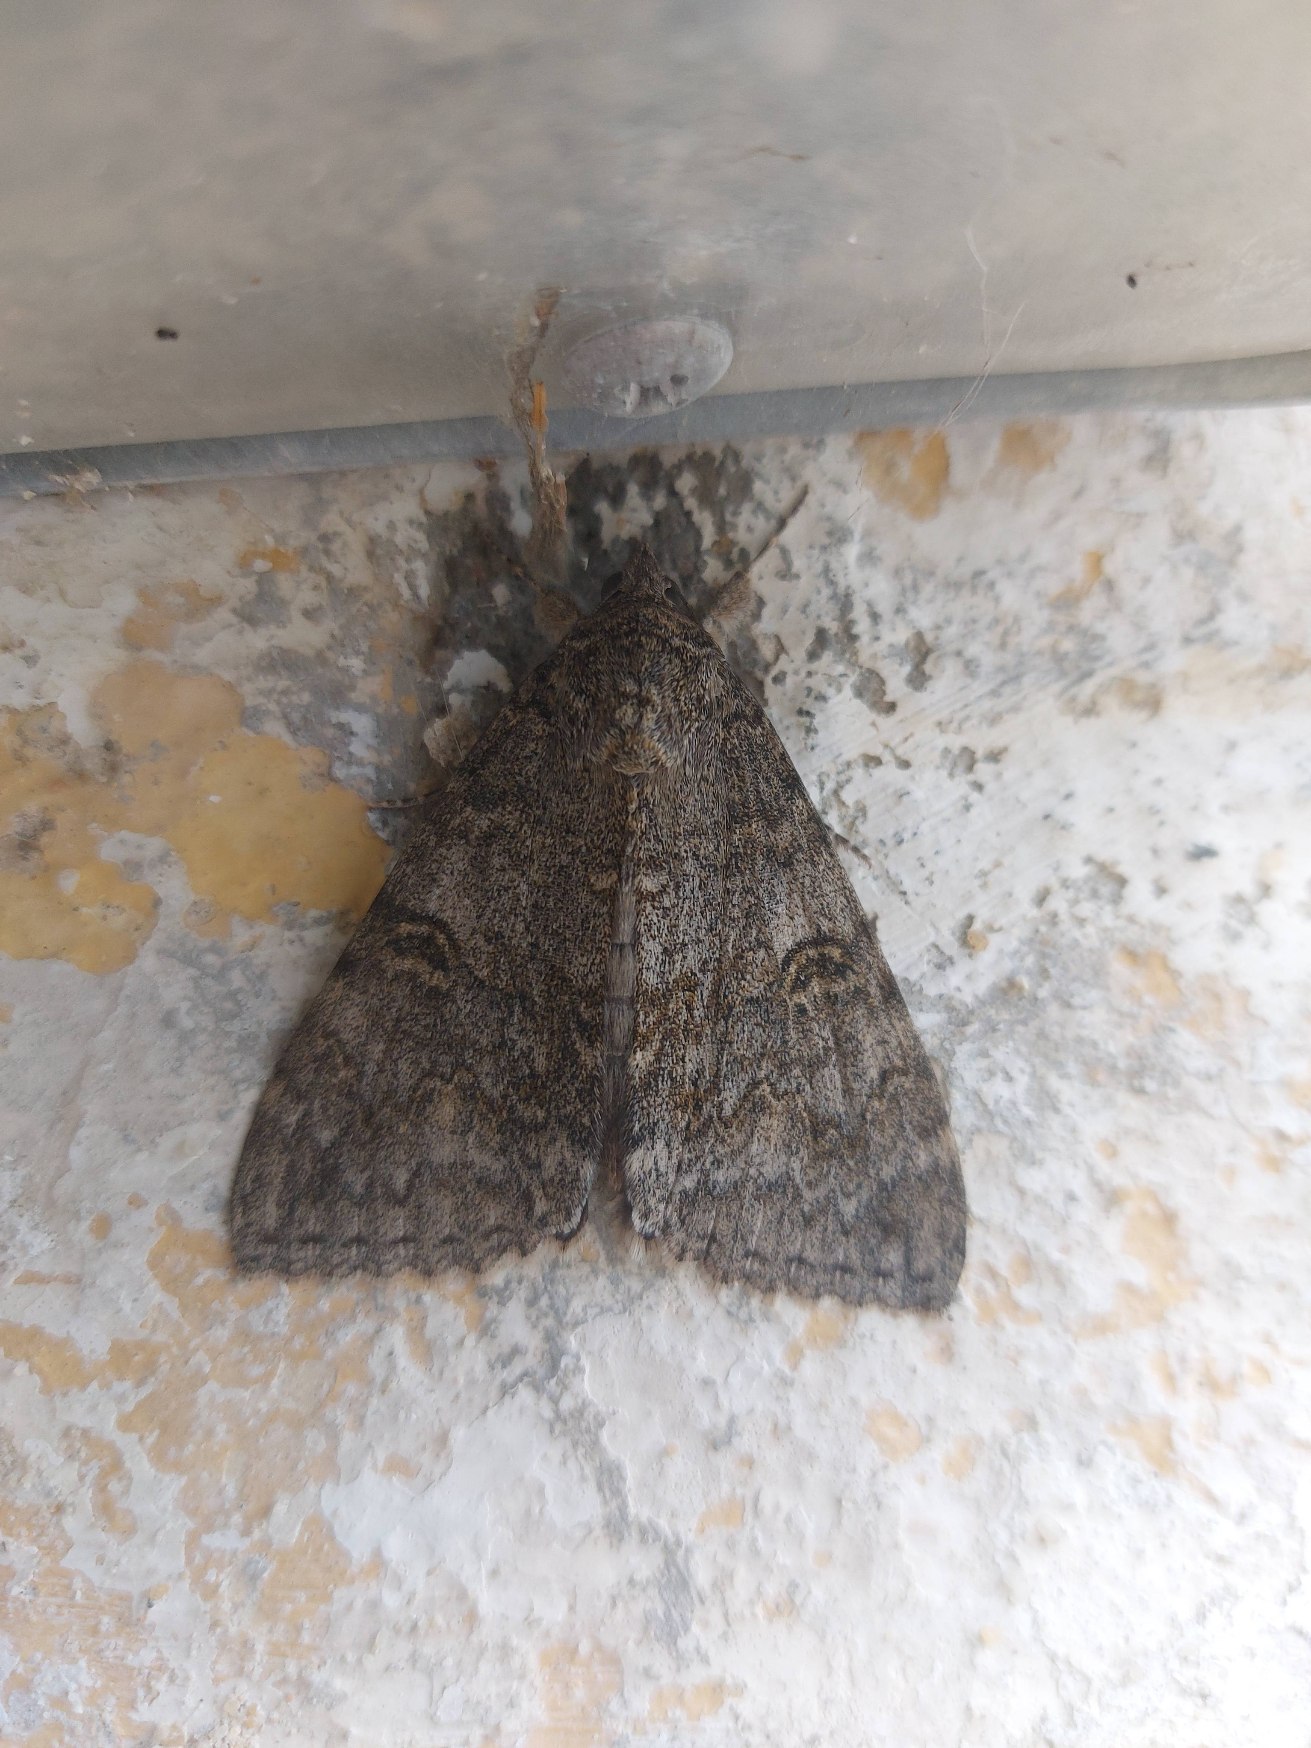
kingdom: Animalia
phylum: Arthropoda
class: Insecta
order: Lepidoptera
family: Erebidae
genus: Catocala
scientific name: Catocala nupta
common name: Rødt ordensbånd
